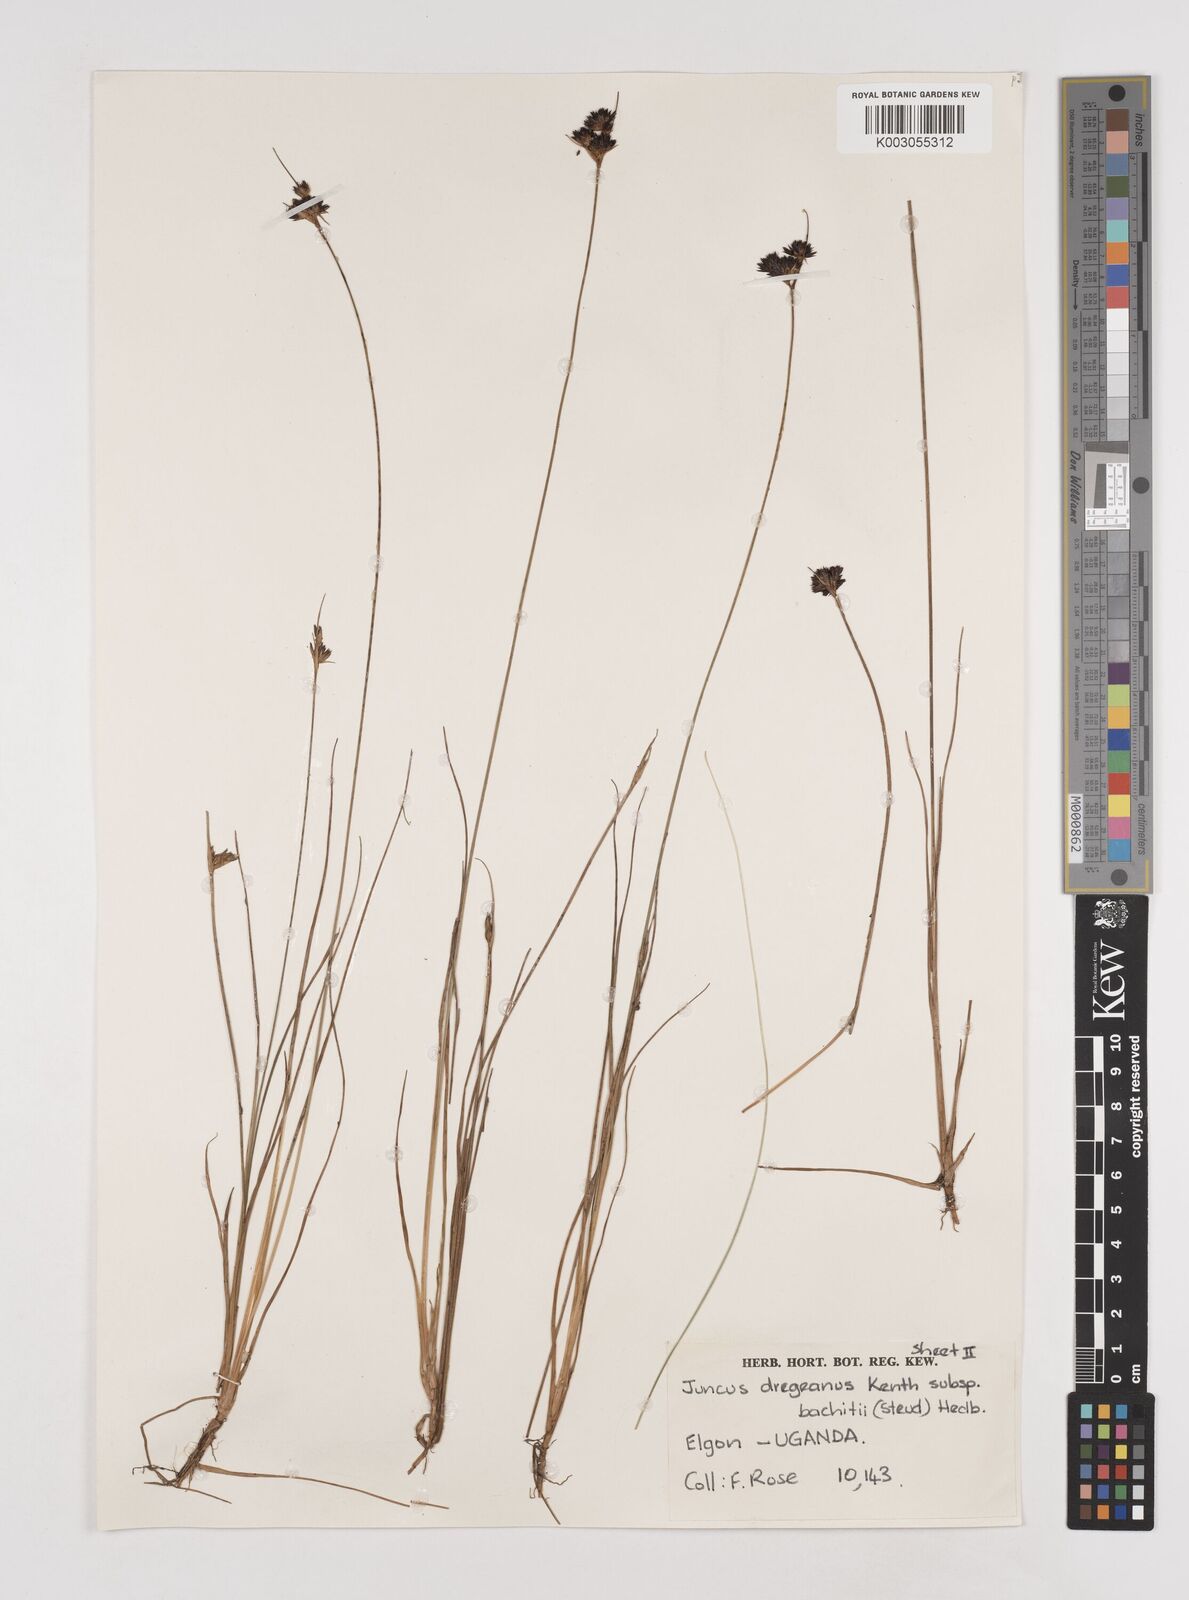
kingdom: Plantae
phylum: Tracheophyta
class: Liliopsida
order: Poales
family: Juncaceae
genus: Juncus
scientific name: Juncus dregeanus
